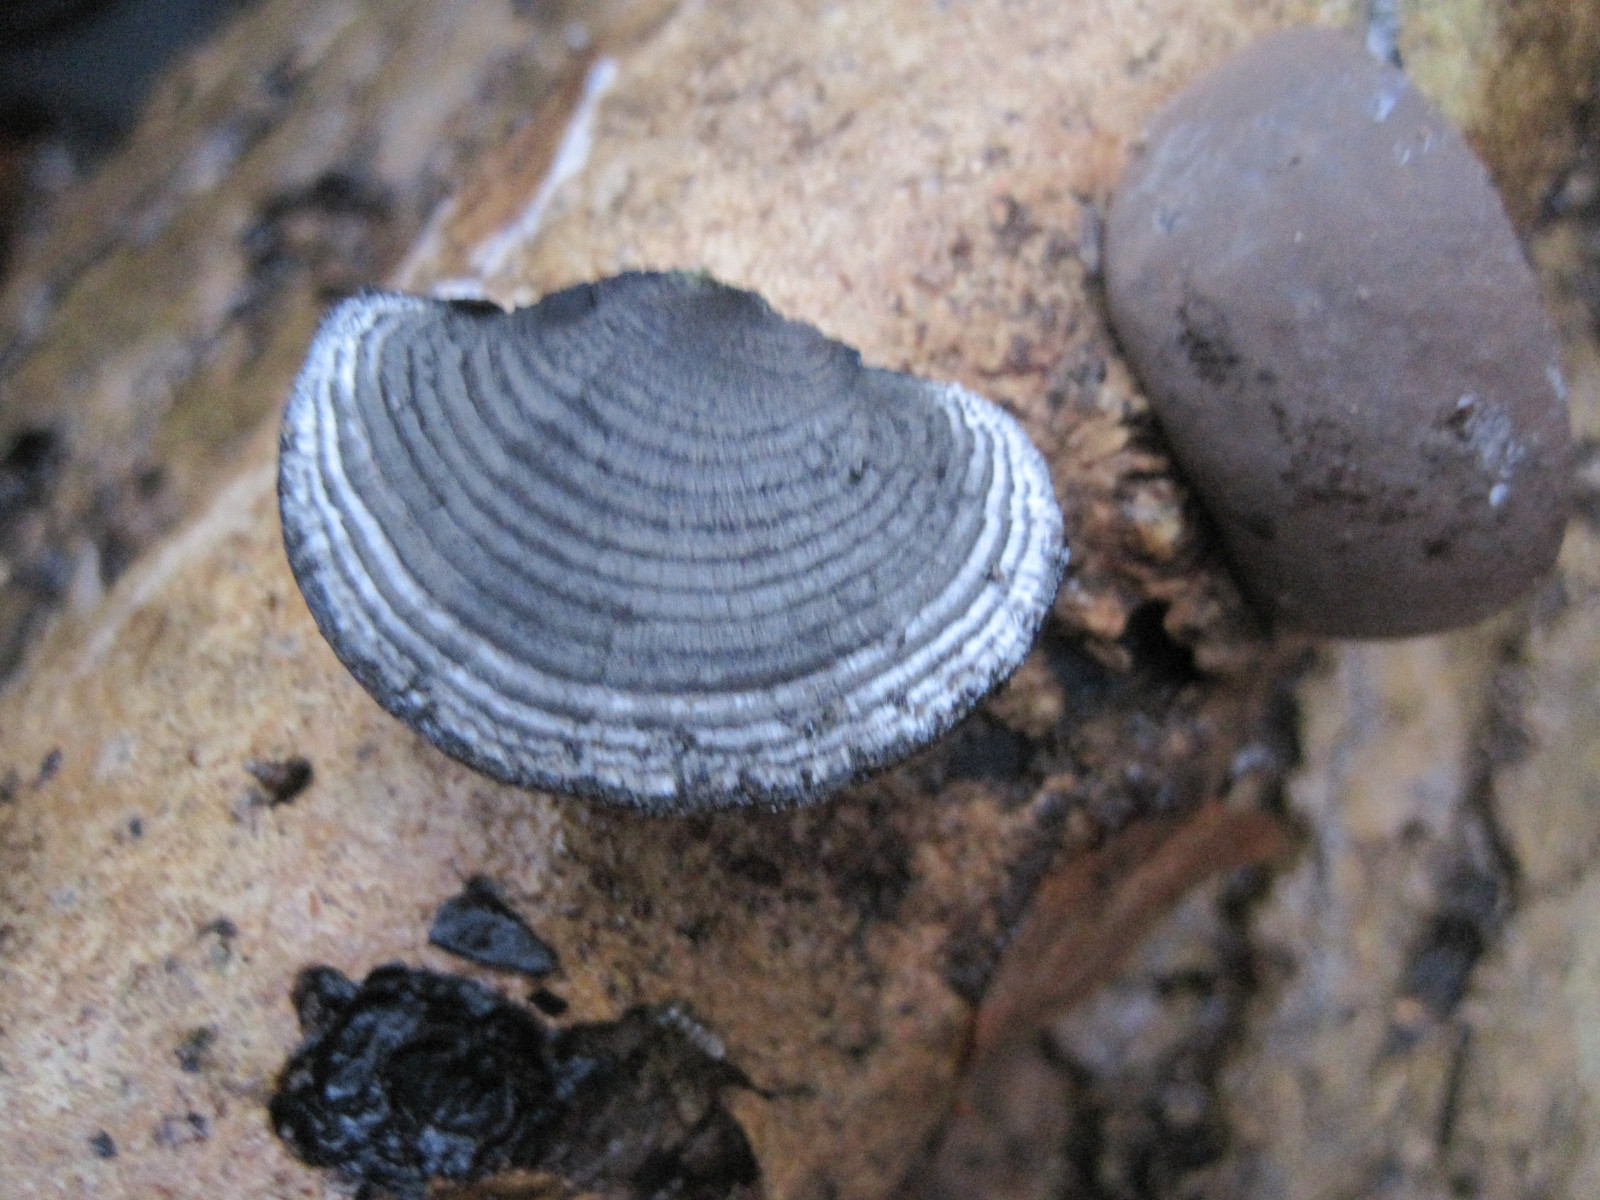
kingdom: Fungi
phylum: Ascomycota
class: Sordariomycetes
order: Xylariales
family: Hypoxylaceae
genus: Daldinia
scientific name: Daldinia concentrica
